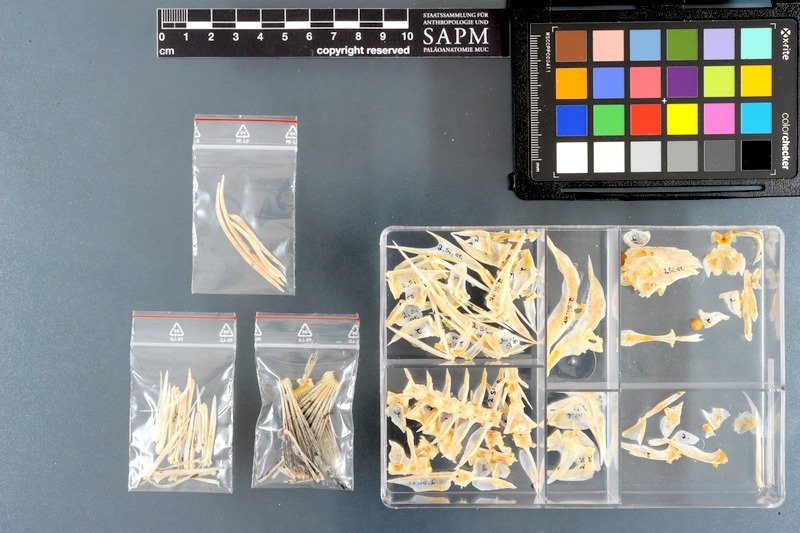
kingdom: Animalia
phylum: Chordata
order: Perciformes
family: Siganidae
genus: Siganus
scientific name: Siganus canaliculatus
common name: White-spotted spinefoot
